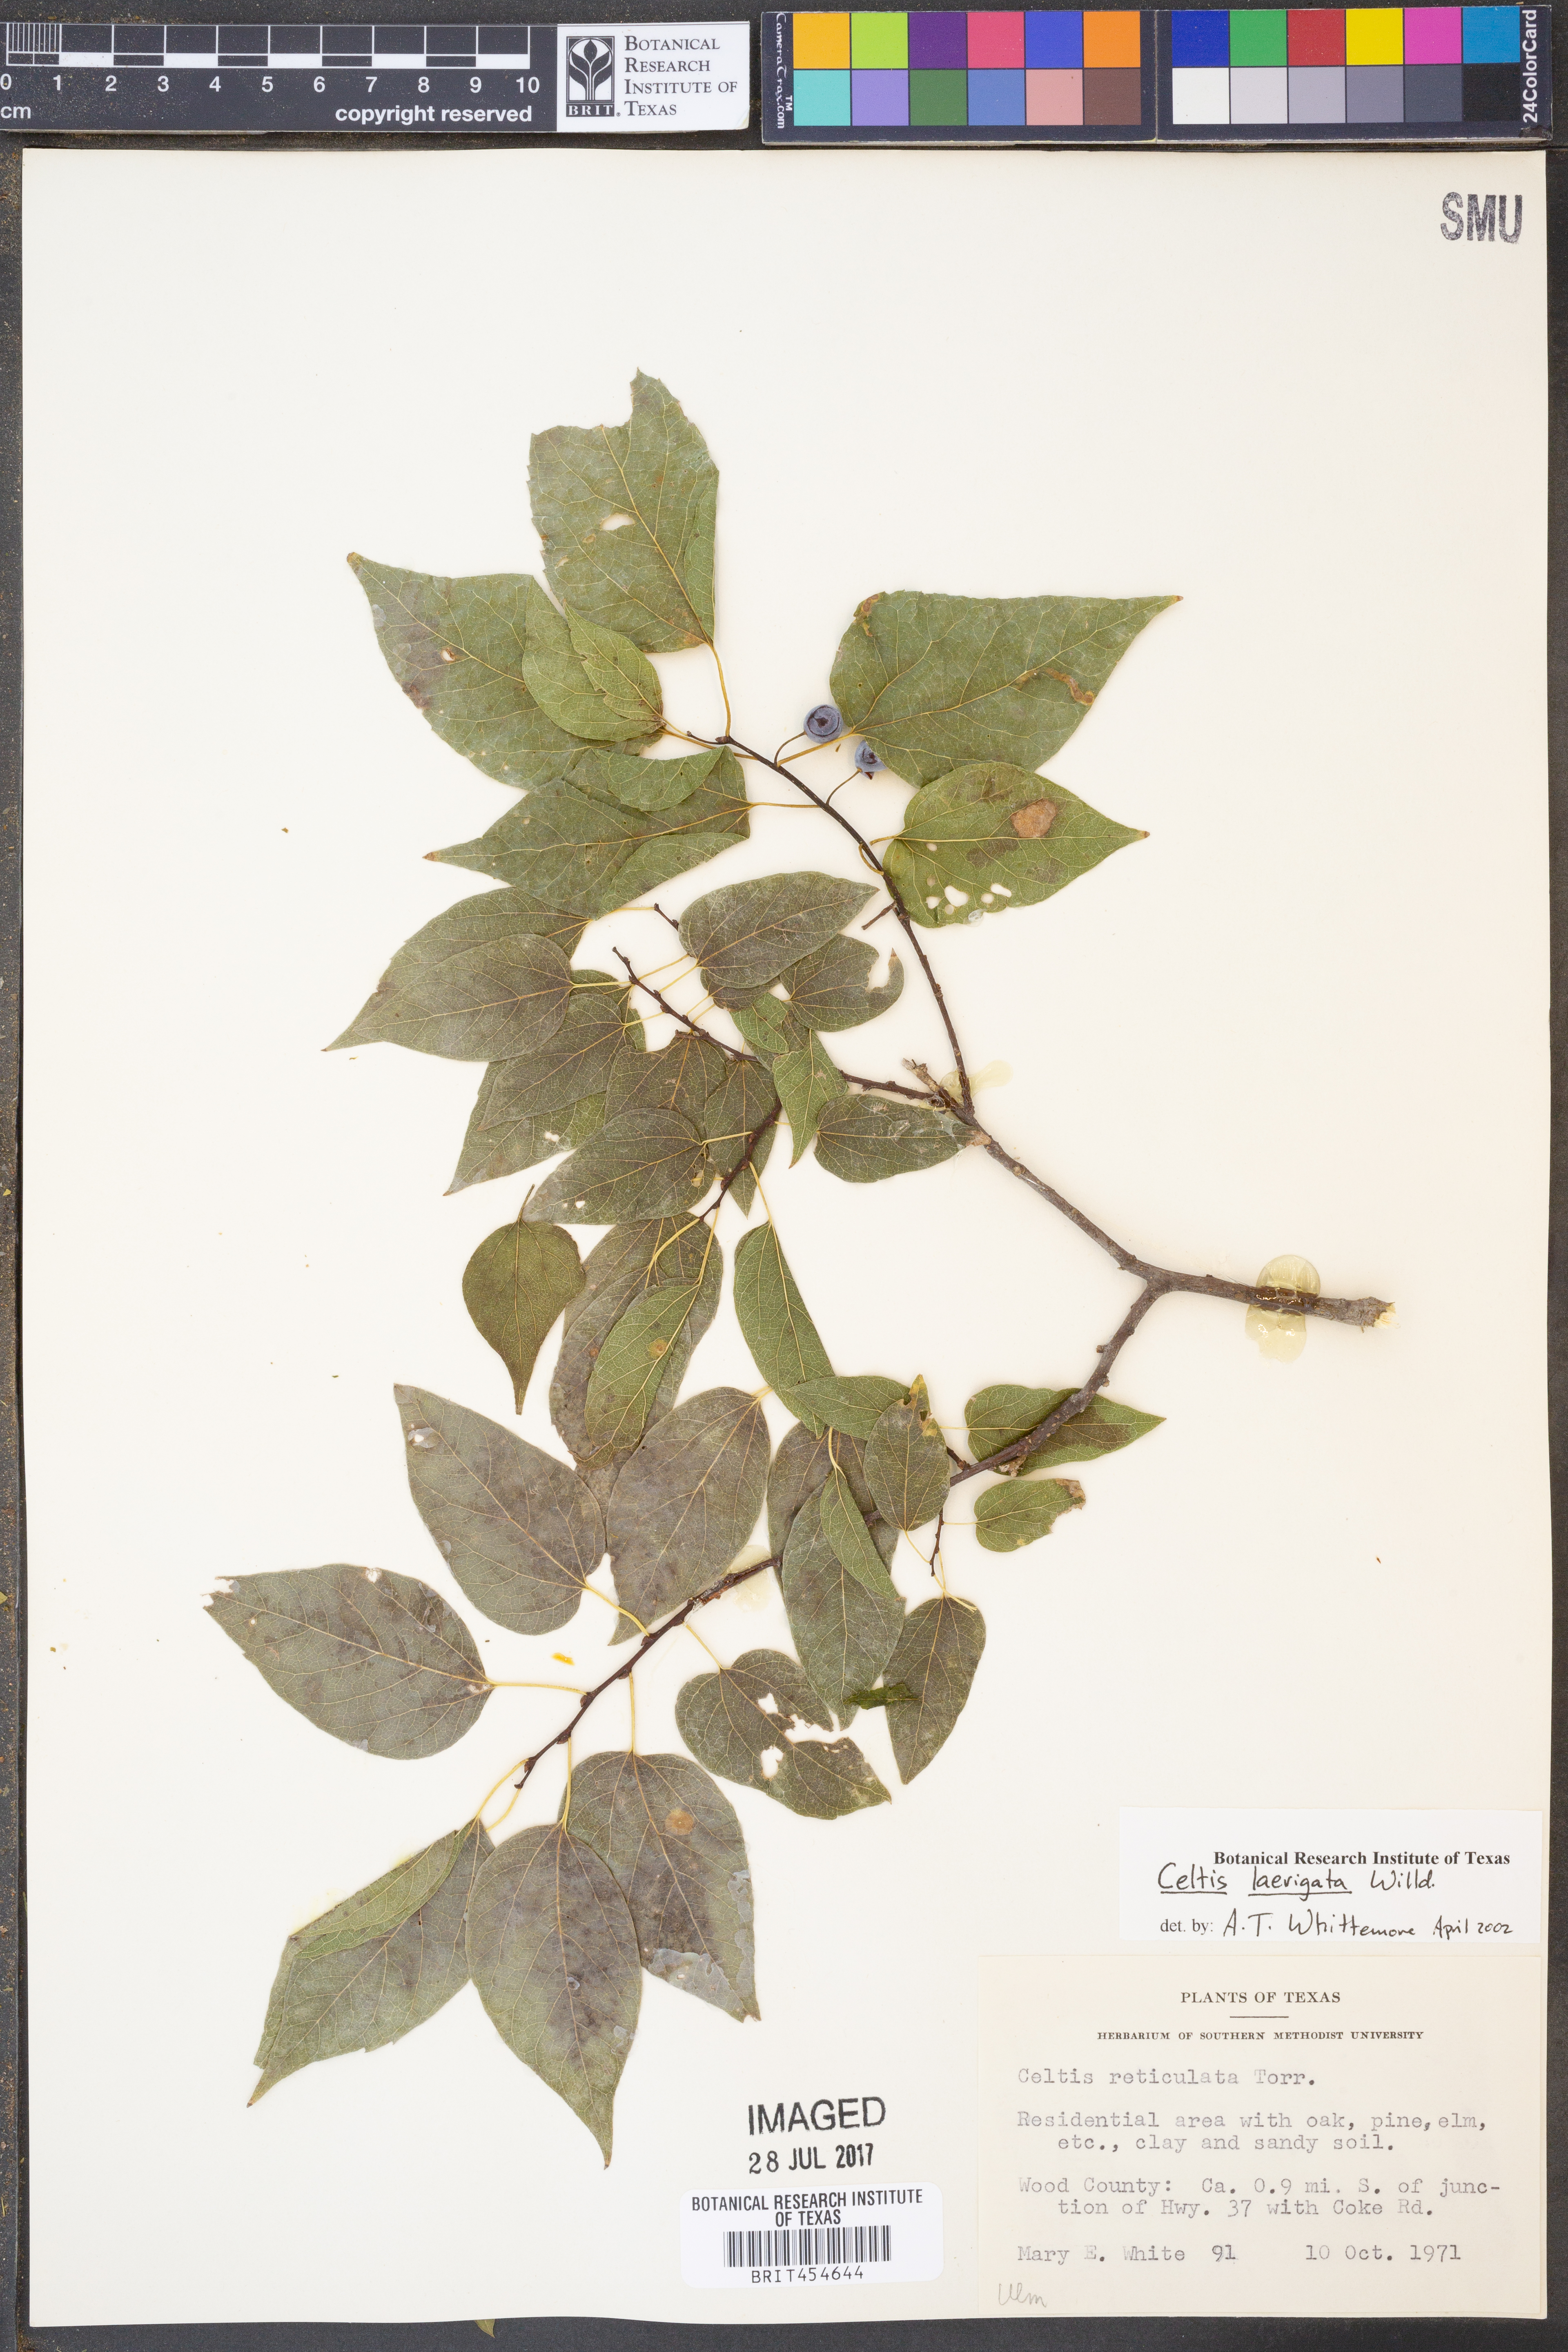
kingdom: Plantae
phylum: Tracheophyta
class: Magnoliopsida
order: Rosales
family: Cannabaceae
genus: Celtis
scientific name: Celtis laevigata
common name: Sugarberry
